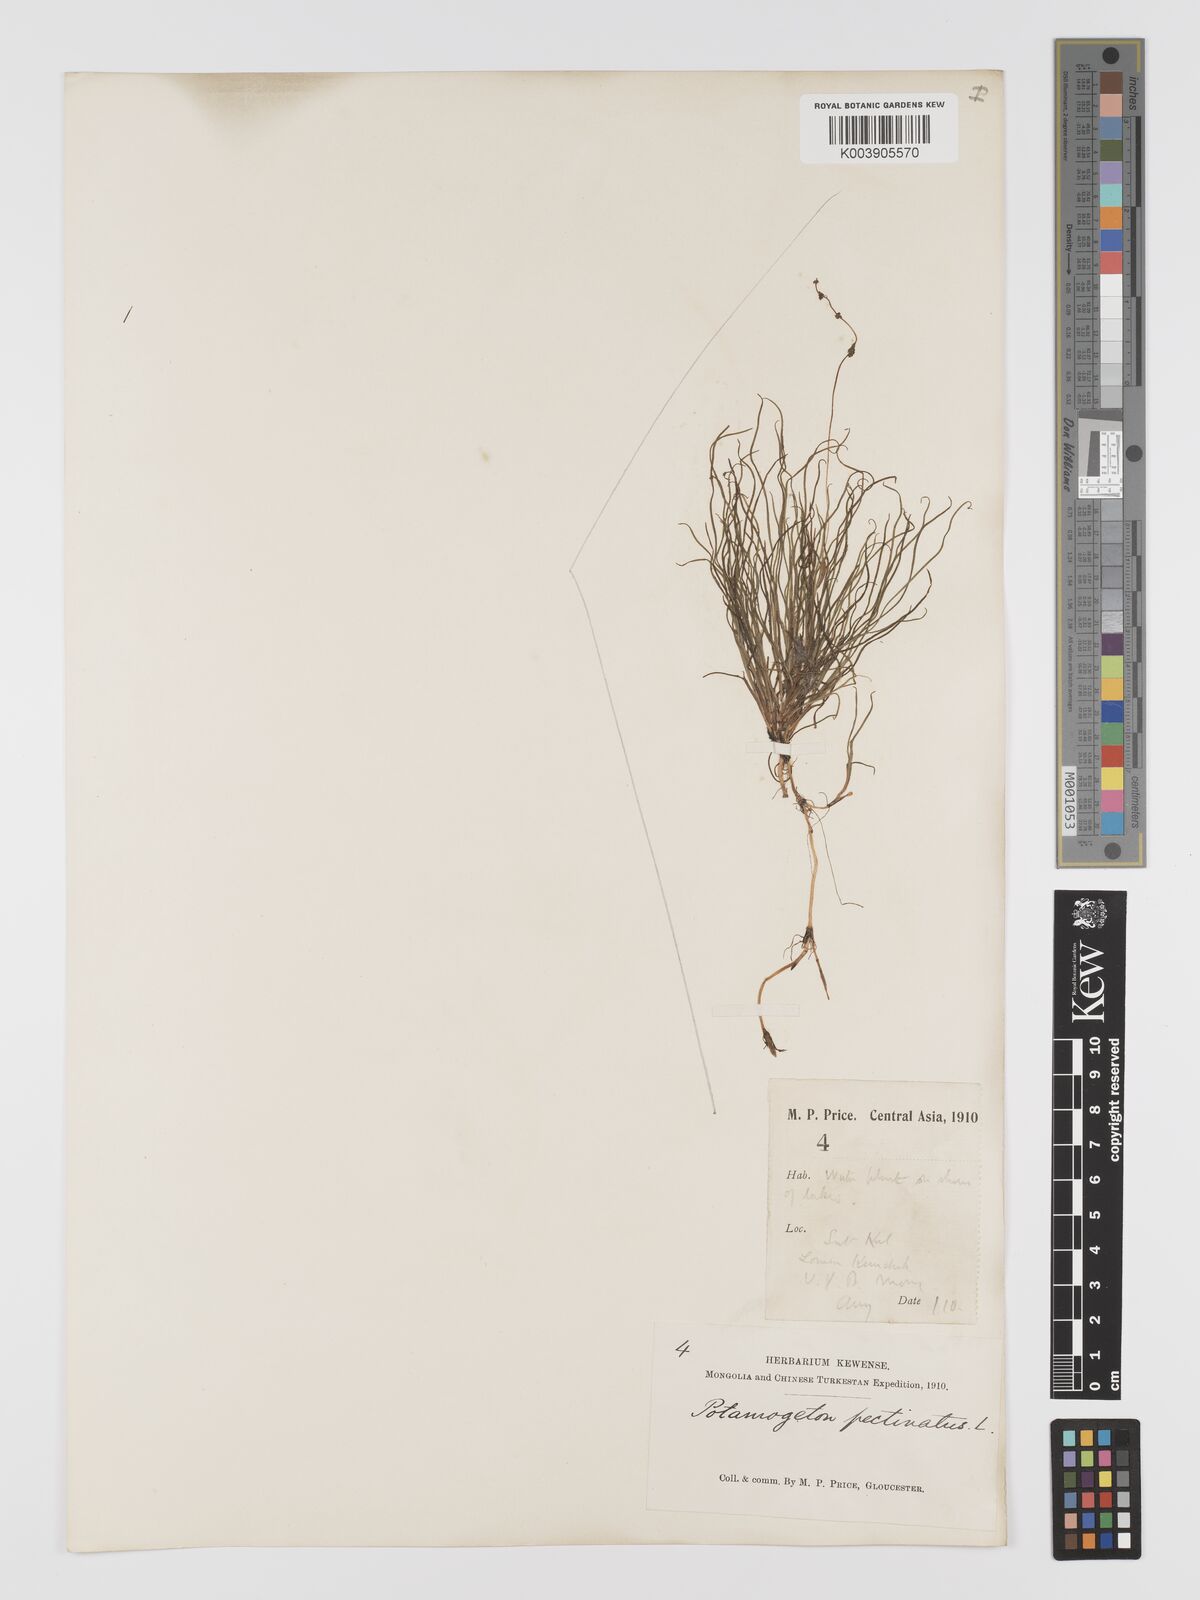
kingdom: Plantae
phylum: Tracheophyta
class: Liliopsida
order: Alismatales
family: Potamogetonaceae
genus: Stuckenia
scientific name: Stuckenia filiformis
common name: Alpine thread-leaved pondweed
